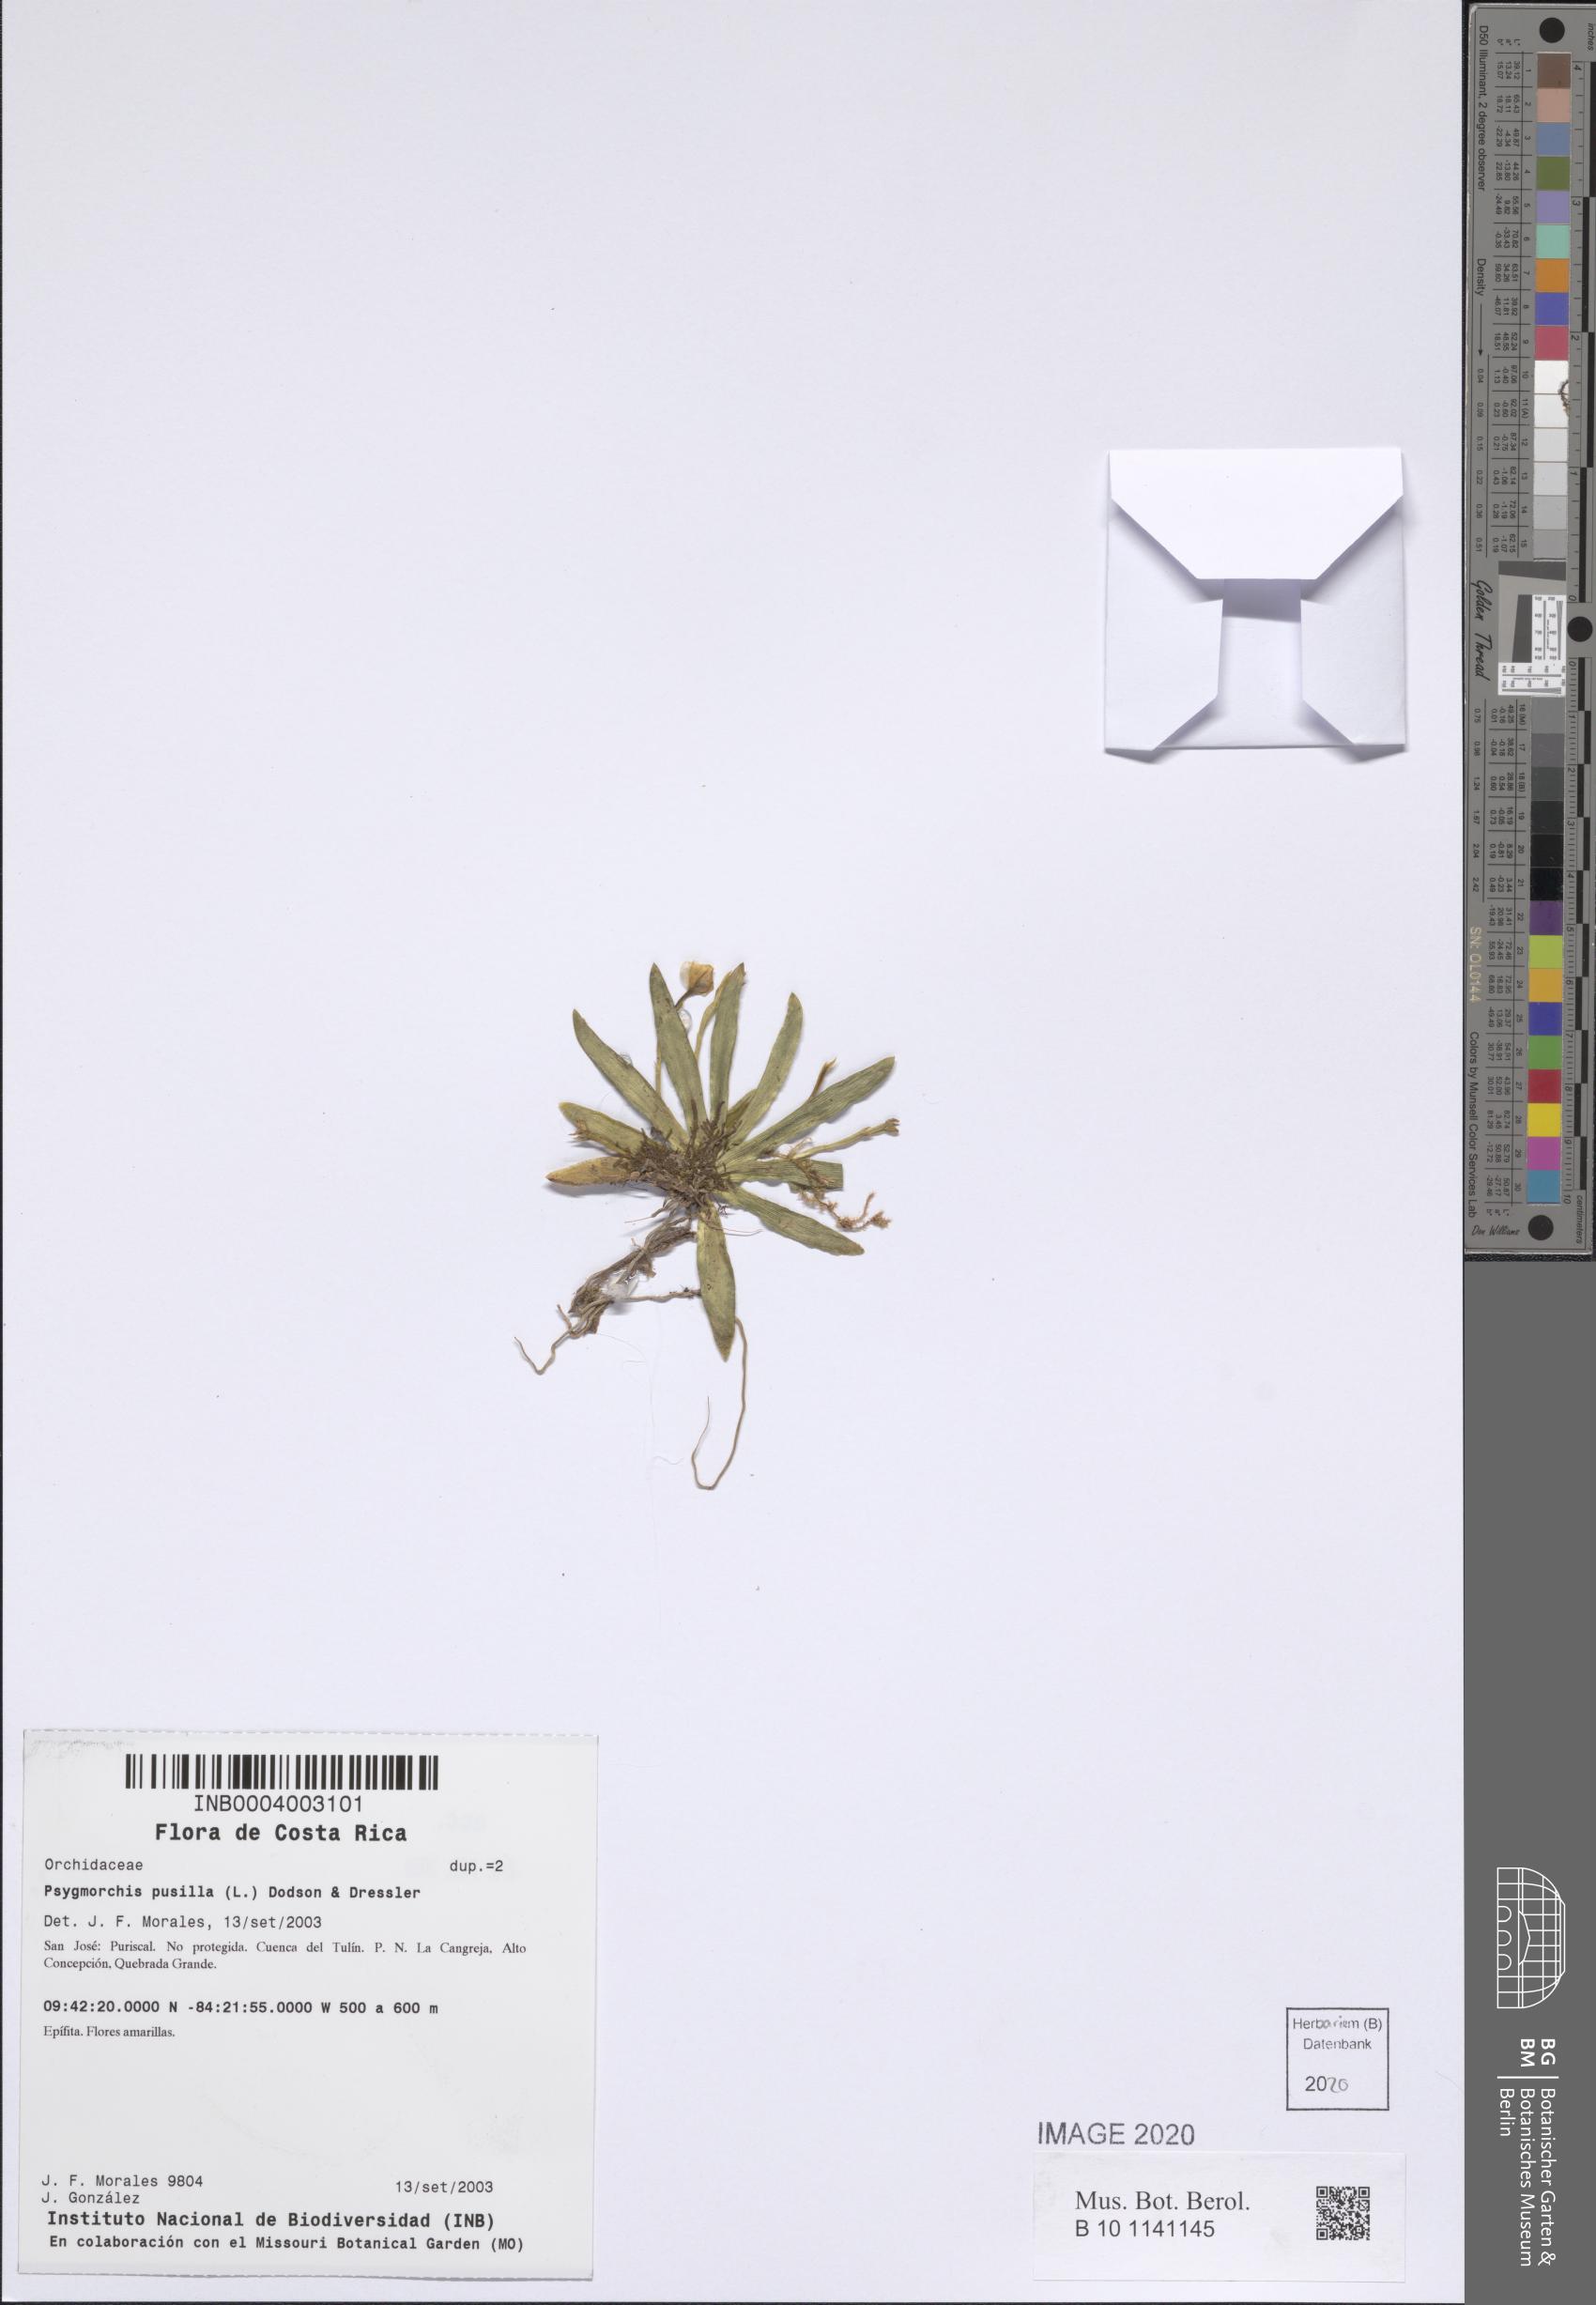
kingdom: Plantae
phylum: Tracheophyta
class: Liliopsida
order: Asparagales
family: Orchidaceae
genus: Erycina
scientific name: Erycina pusilla
